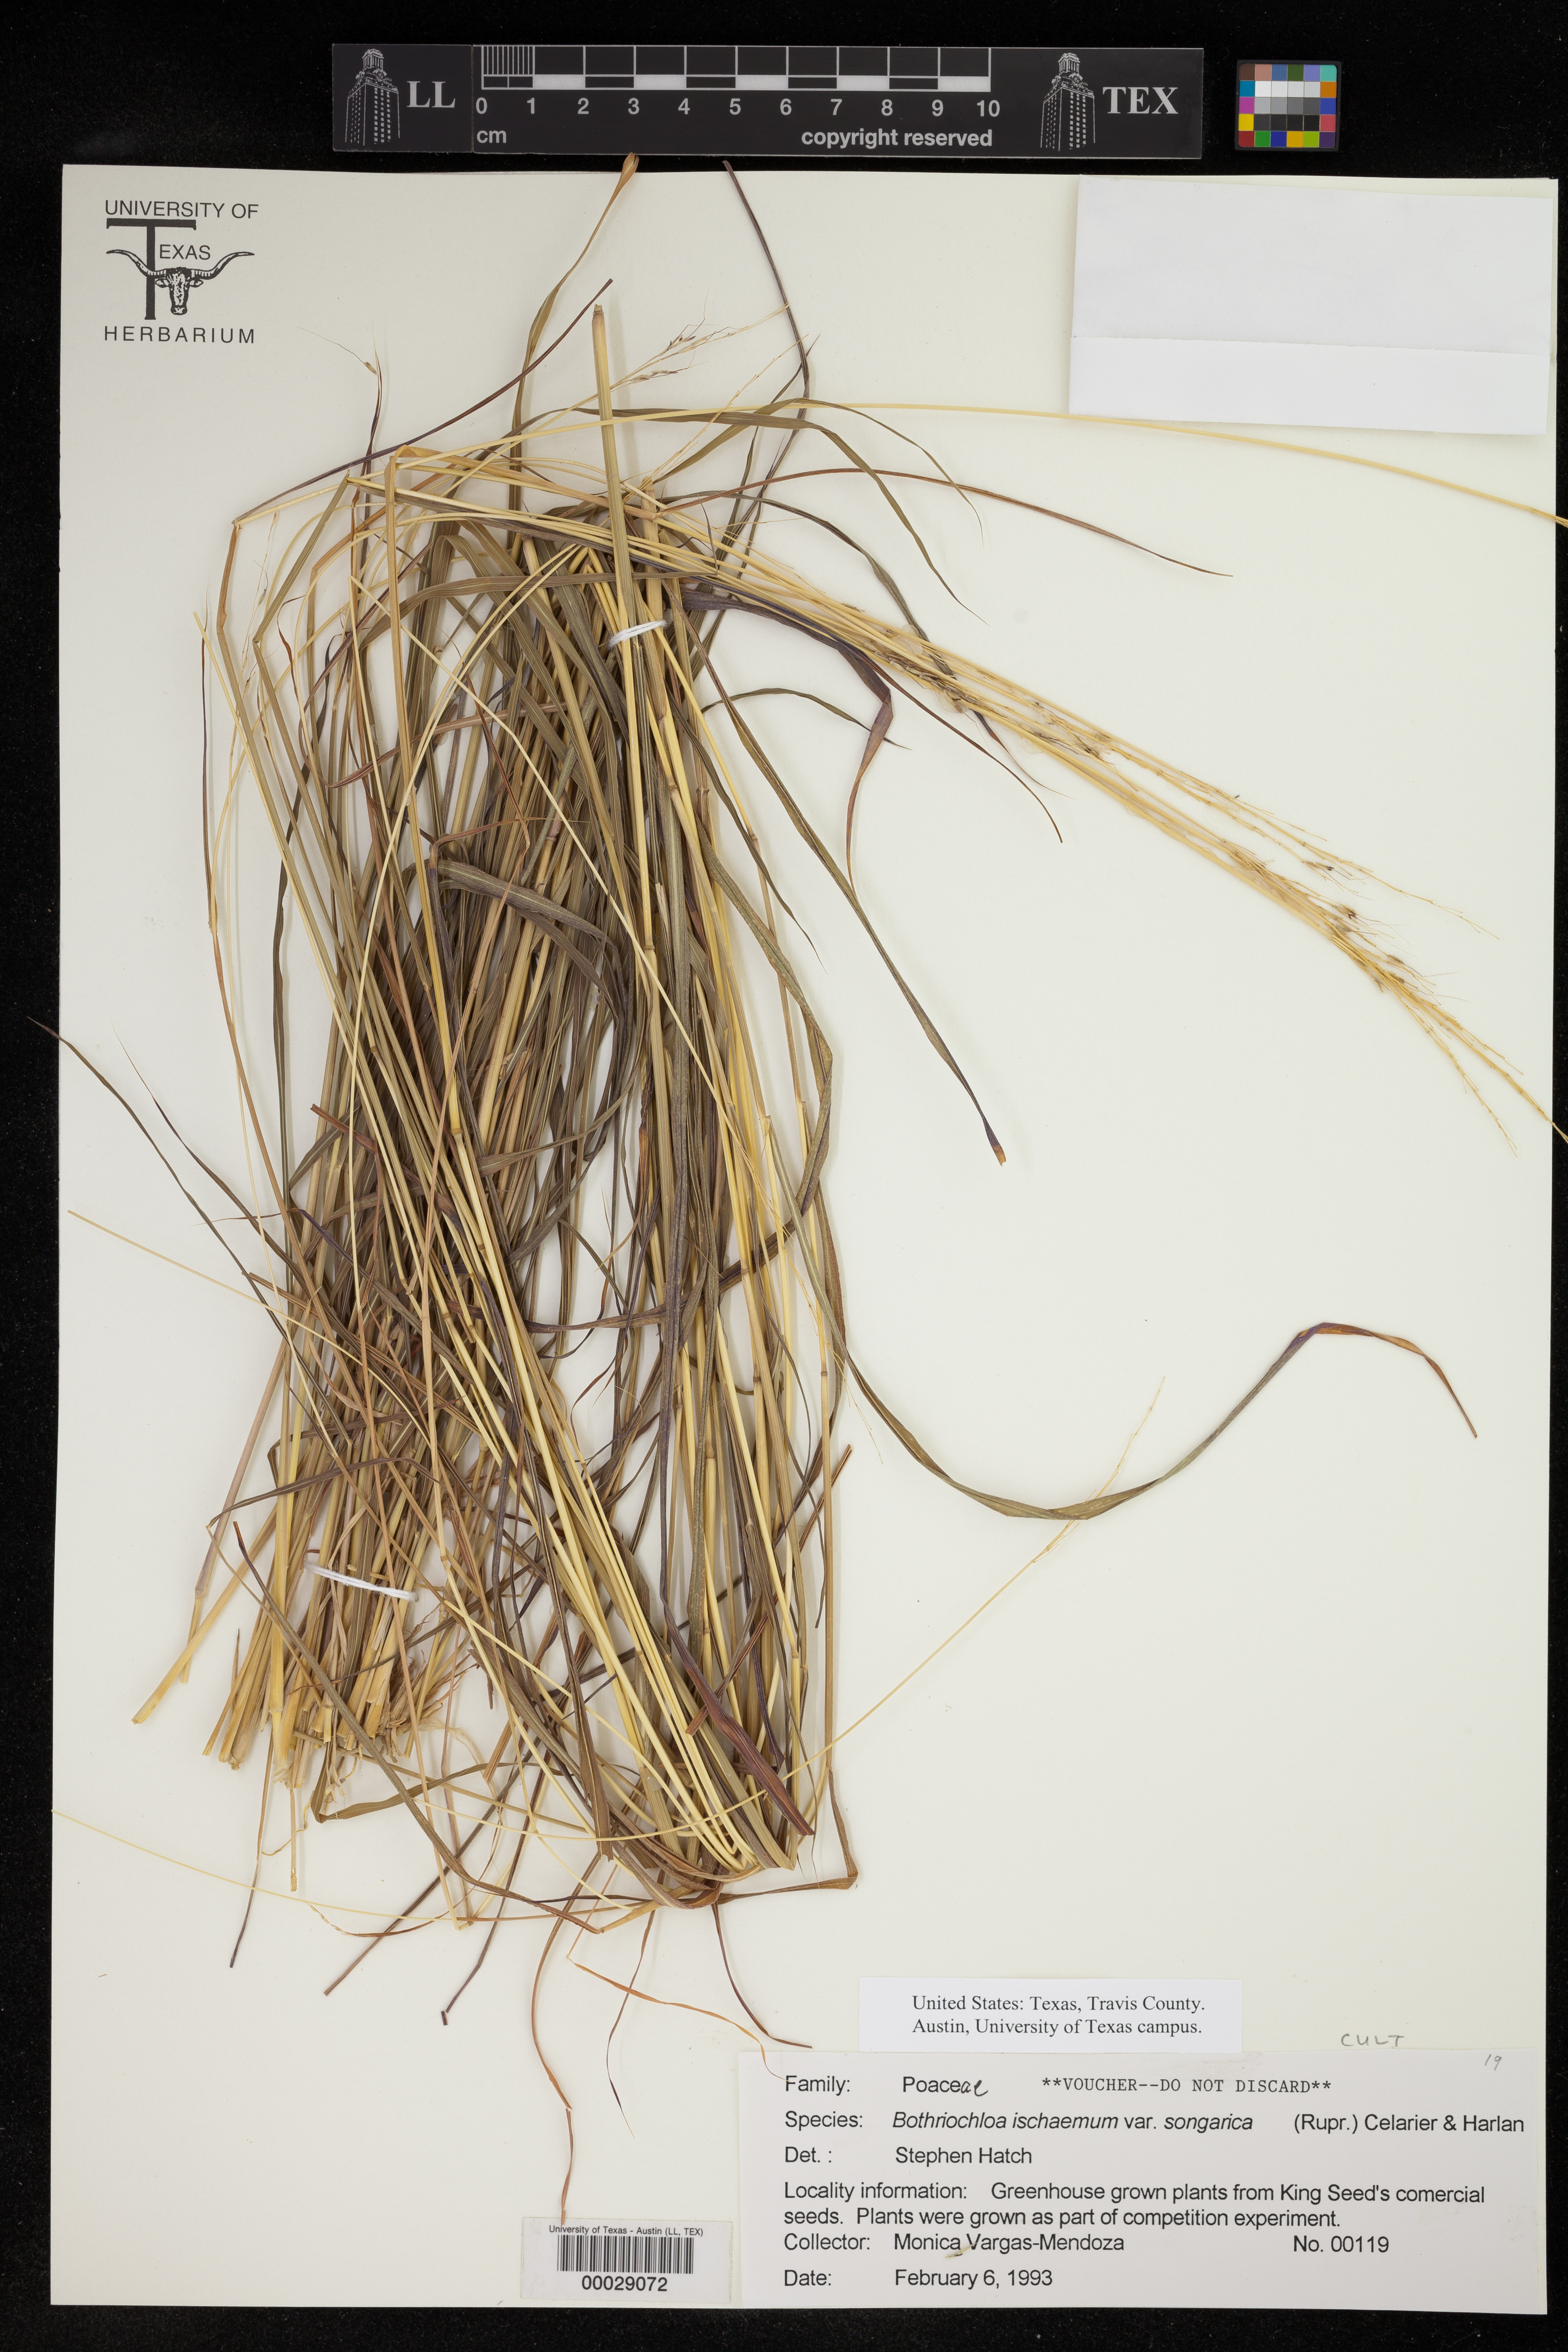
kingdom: Plantae
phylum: Tracheophyta
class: Liliopsida
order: Poales
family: Poaceae
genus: Bothriochloa
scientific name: Bothriochloa ischaemum
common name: Yellow bluestem
